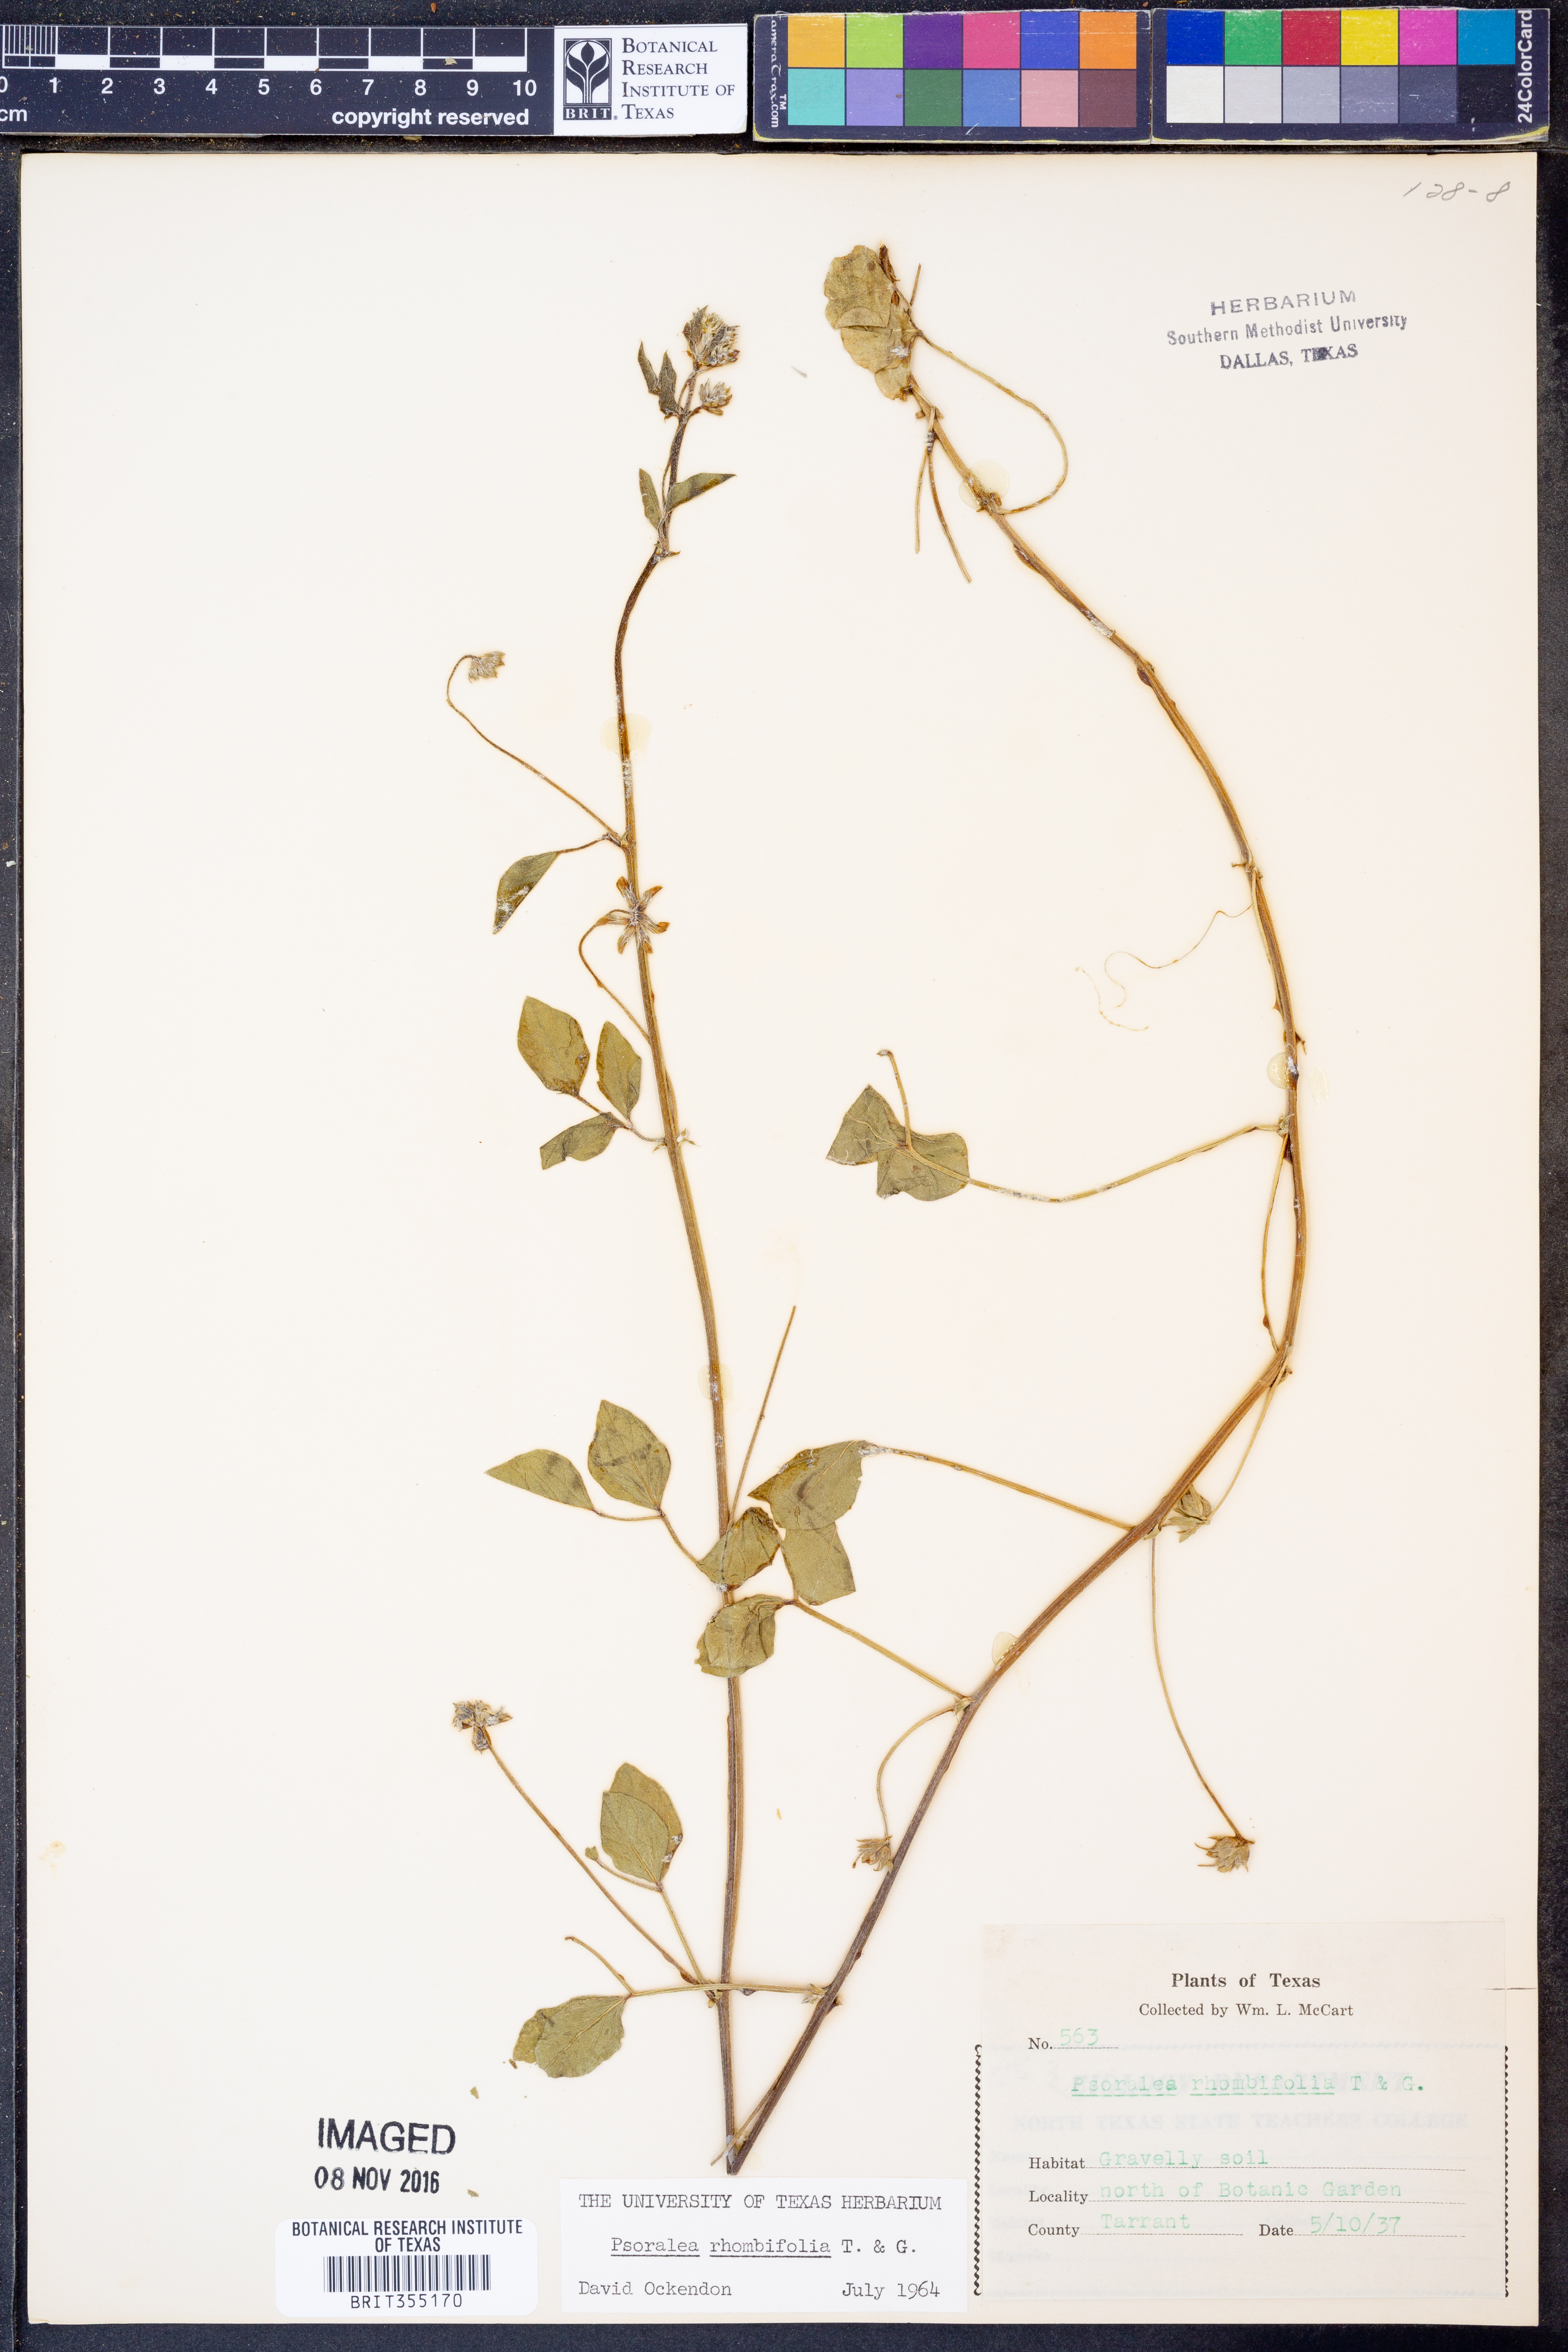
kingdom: Plantae
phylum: Tracheophyta
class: Magnoliopsida
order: Fabales
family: Fabaceae
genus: Pediomelum
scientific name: Pediomelum rhombifolium
